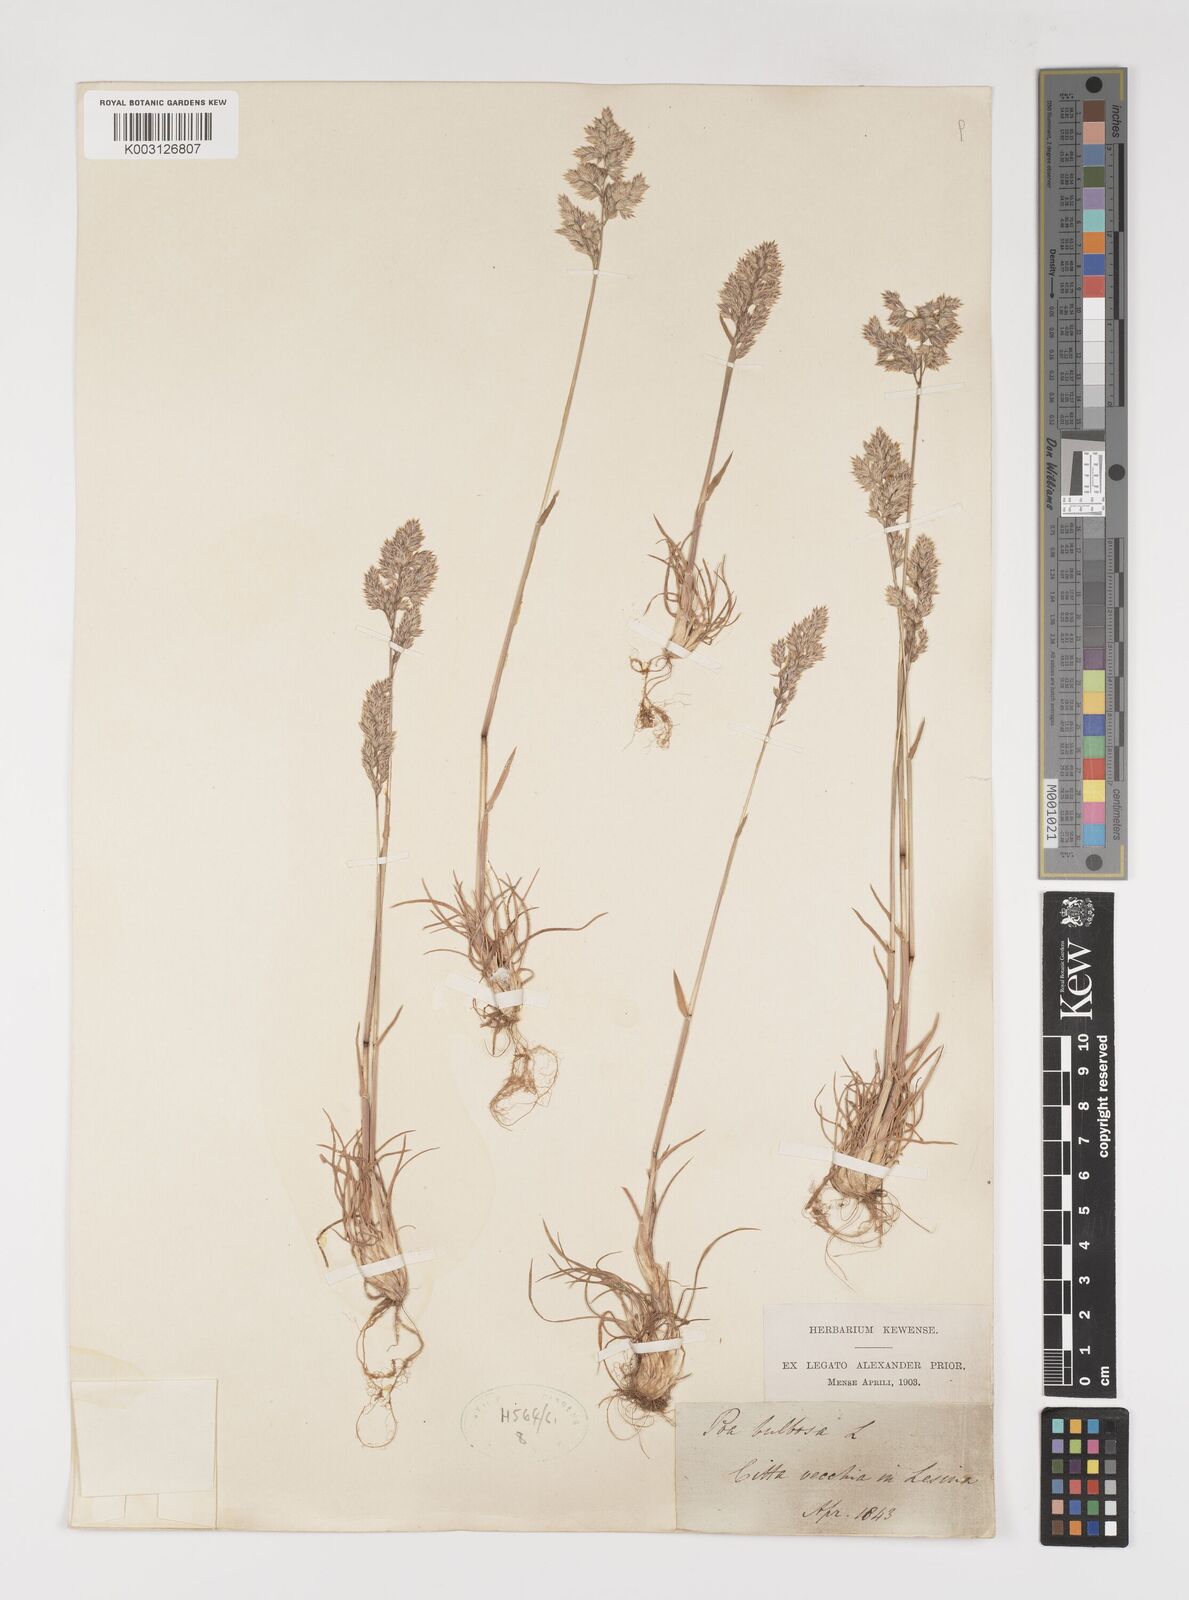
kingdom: Plantae
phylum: Tracheophyta
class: Liliopsida
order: Poales
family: Poaceae
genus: Poa
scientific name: Poa bulbosa
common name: Bulbous bluegrass
